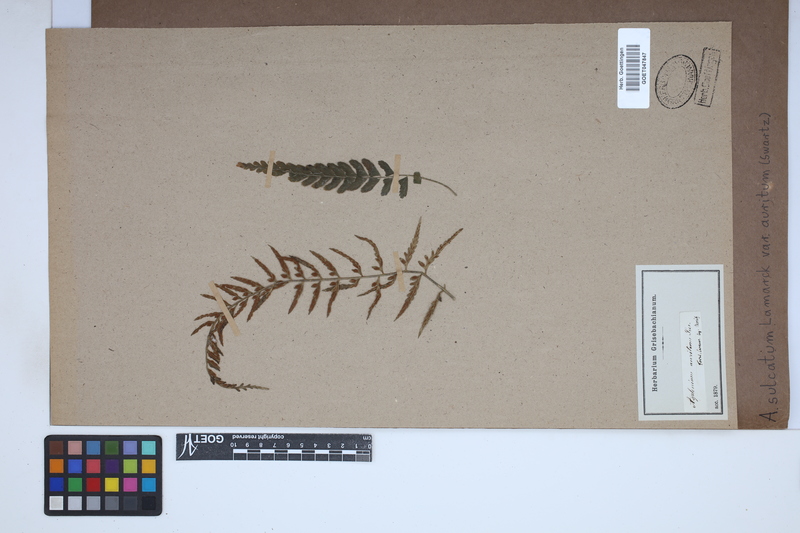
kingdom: Plantae
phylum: Tracheophyta
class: Polypodiopsida
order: Polypodiales
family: Aspleniaceae
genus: Asplenium
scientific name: Asplenium auritum
